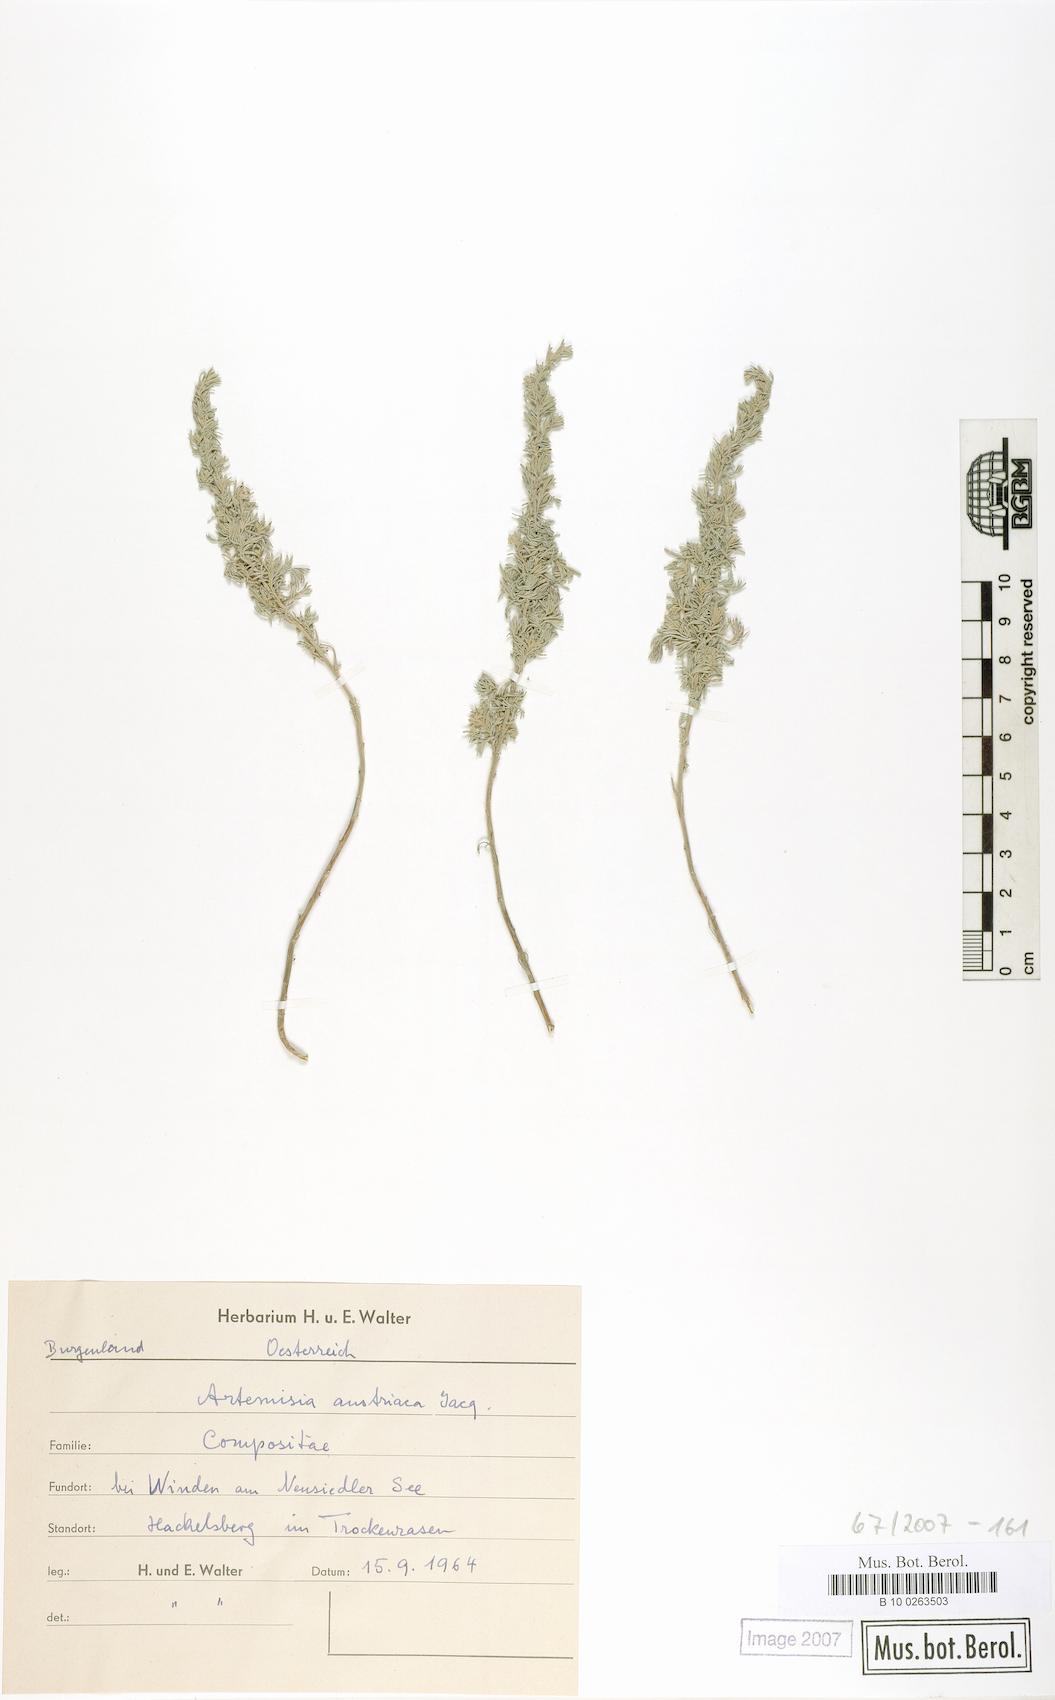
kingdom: Plantae
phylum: Tracheophyta
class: Magnoliopsida
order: Asterales
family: Asteraceae
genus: Artemisia
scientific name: Artemisia austriaca
